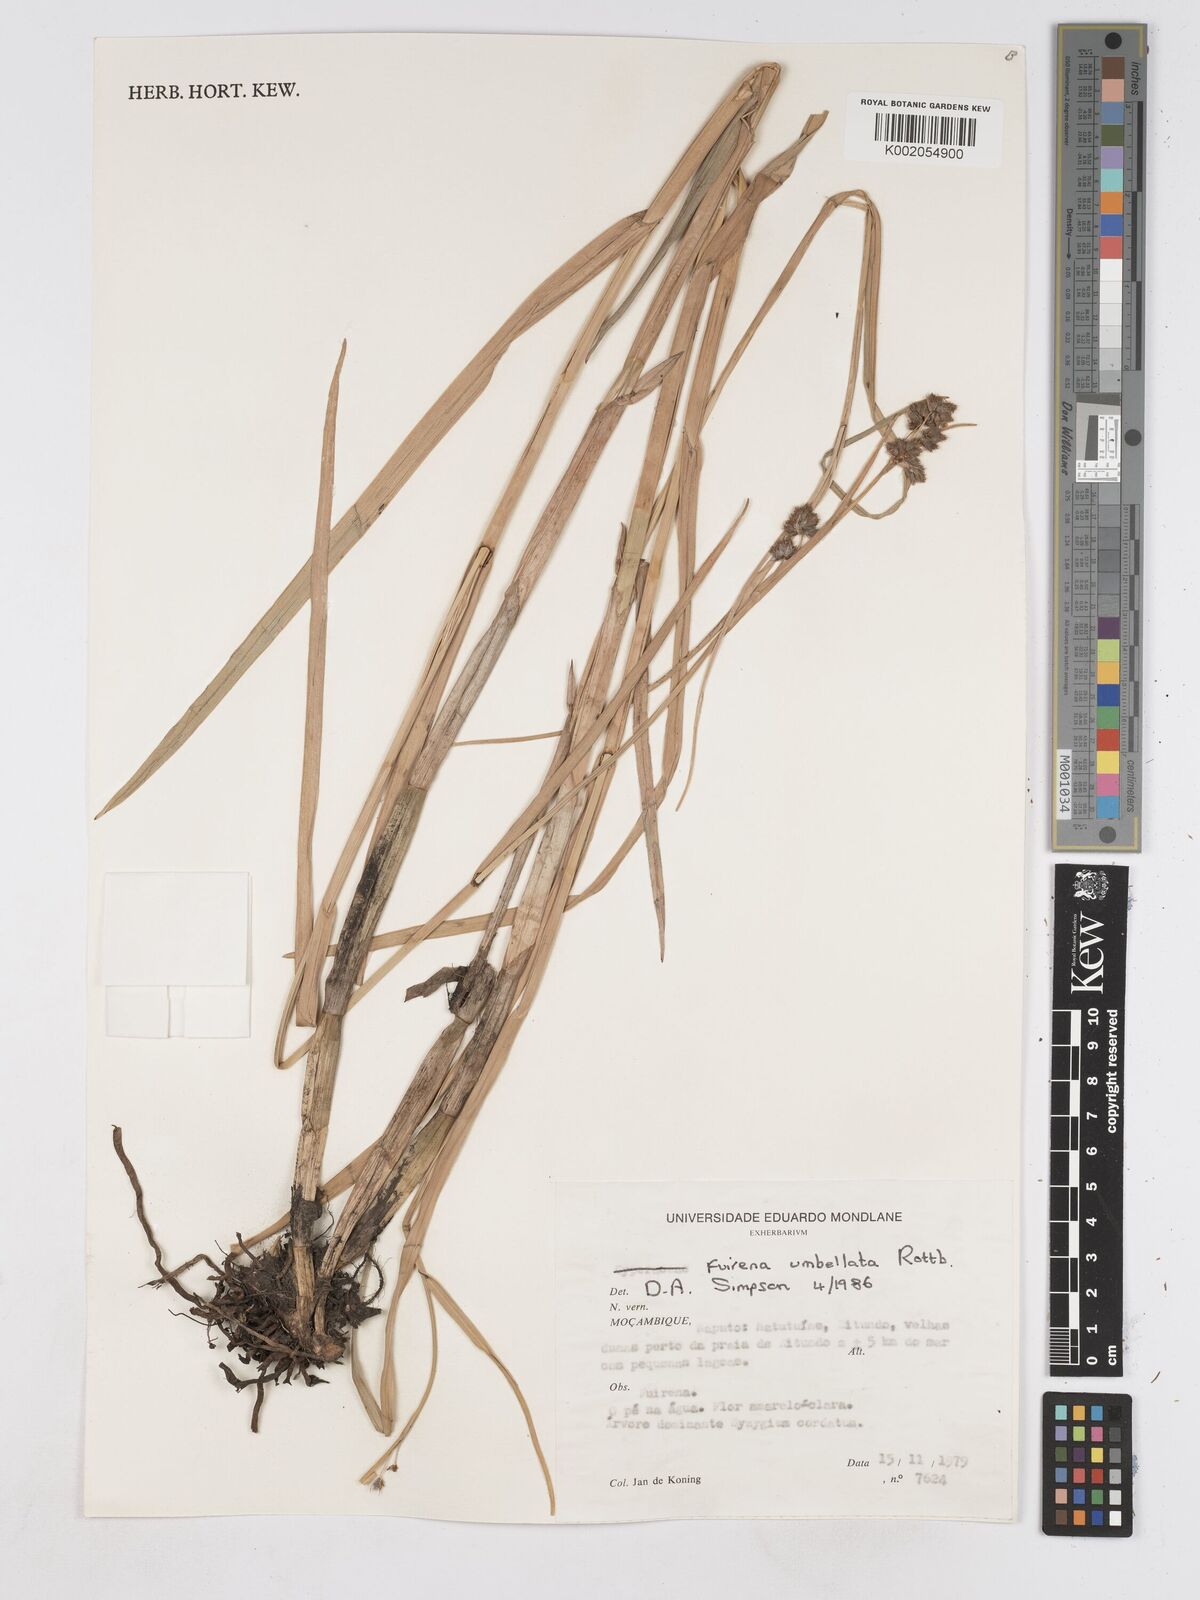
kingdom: Plantae
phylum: Tracheophyta
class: Liliopsida
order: Poales
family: Cyperaceae
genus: Fuirena
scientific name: Fuirena umbellata
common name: Yefen
